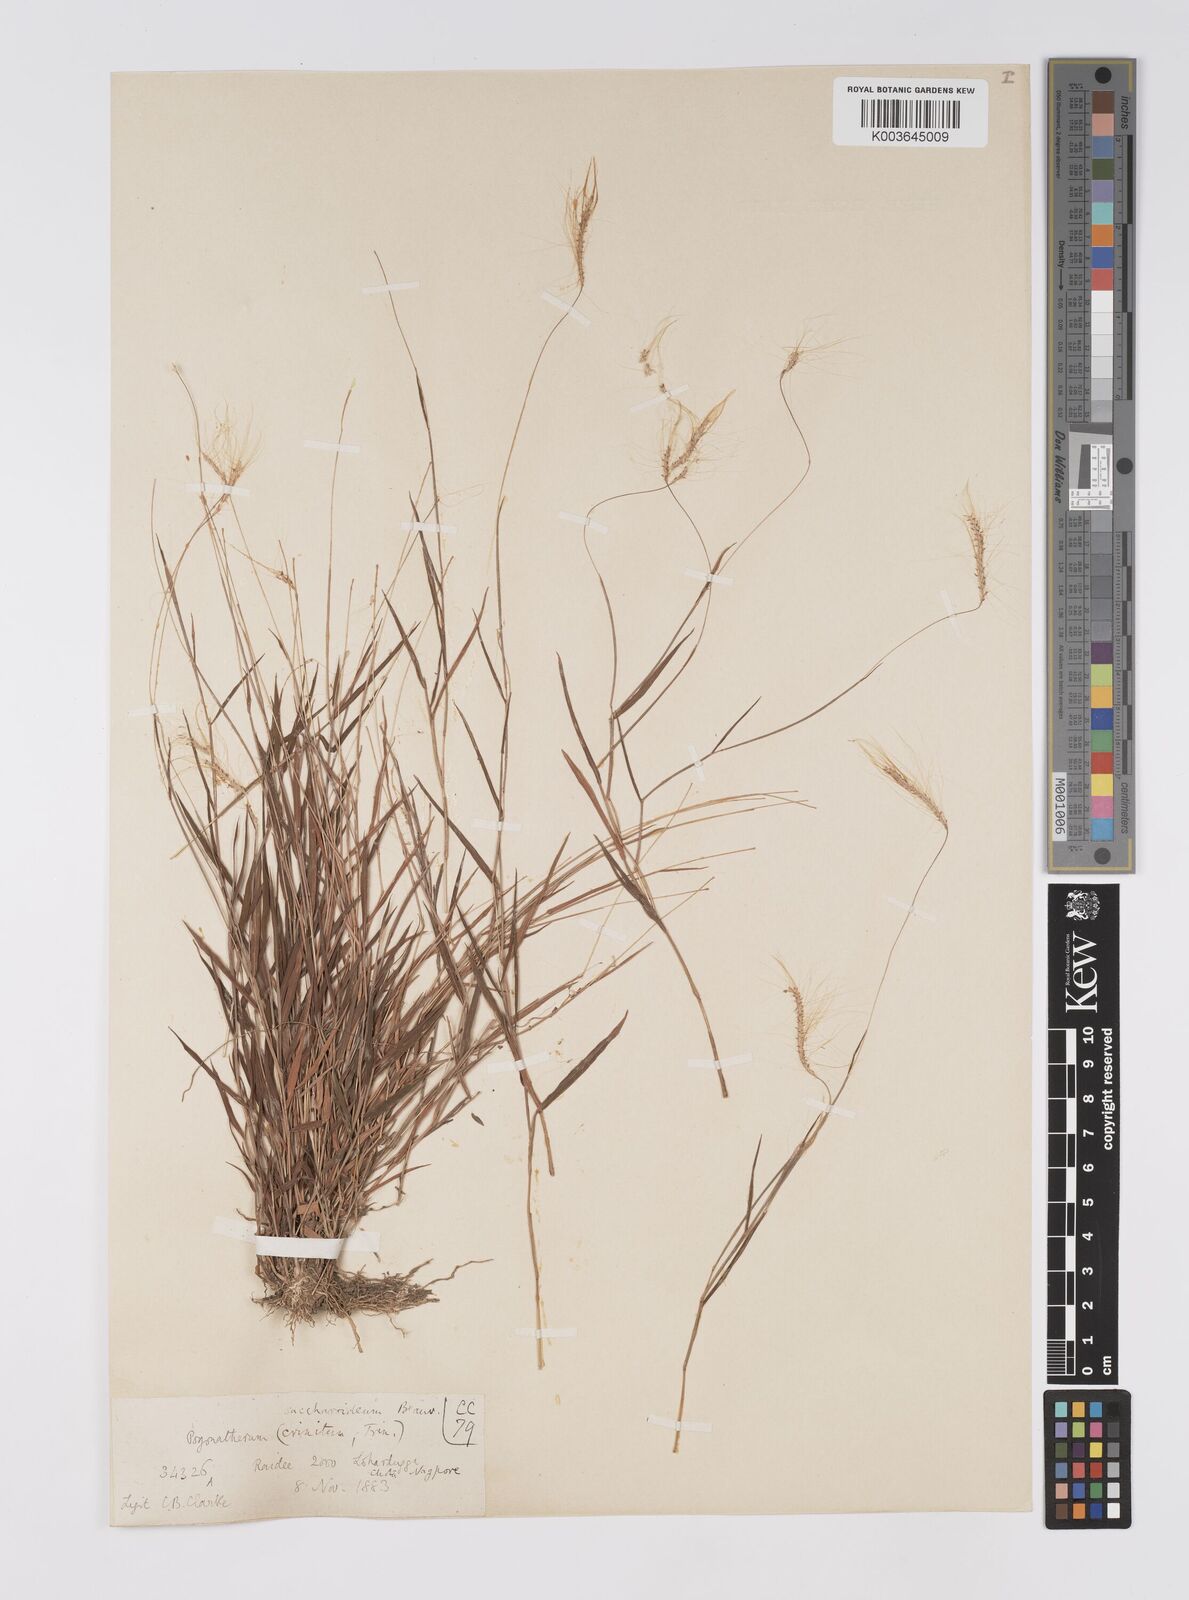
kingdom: Plantae
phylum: Tracheophyta
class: Liliopsida
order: Poales
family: Poaceae
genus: Pogonatherum
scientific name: Pogonatherum crinitum
